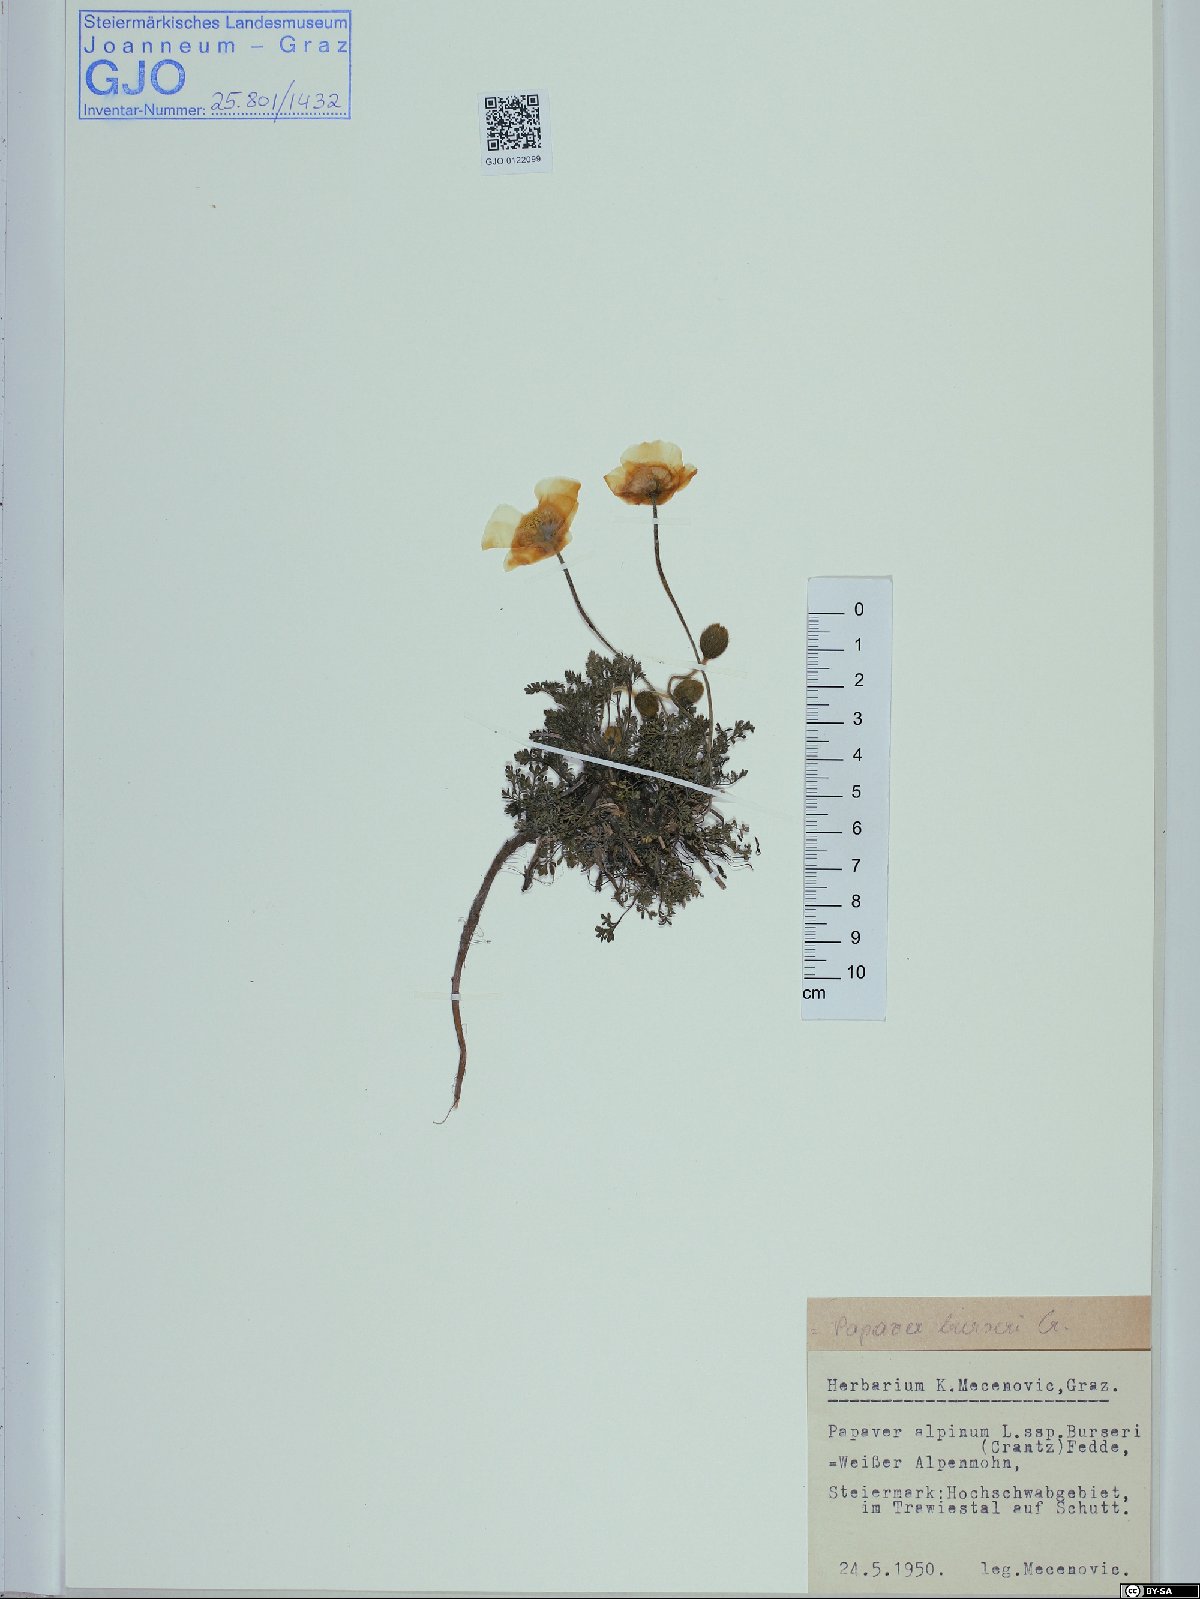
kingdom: Plantae
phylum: Tracheophyta
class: Magnoliopsida
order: Ranunculales
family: Papaveraceae
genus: Papaver
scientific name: Papaver alpinum
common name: Austrian poppy
